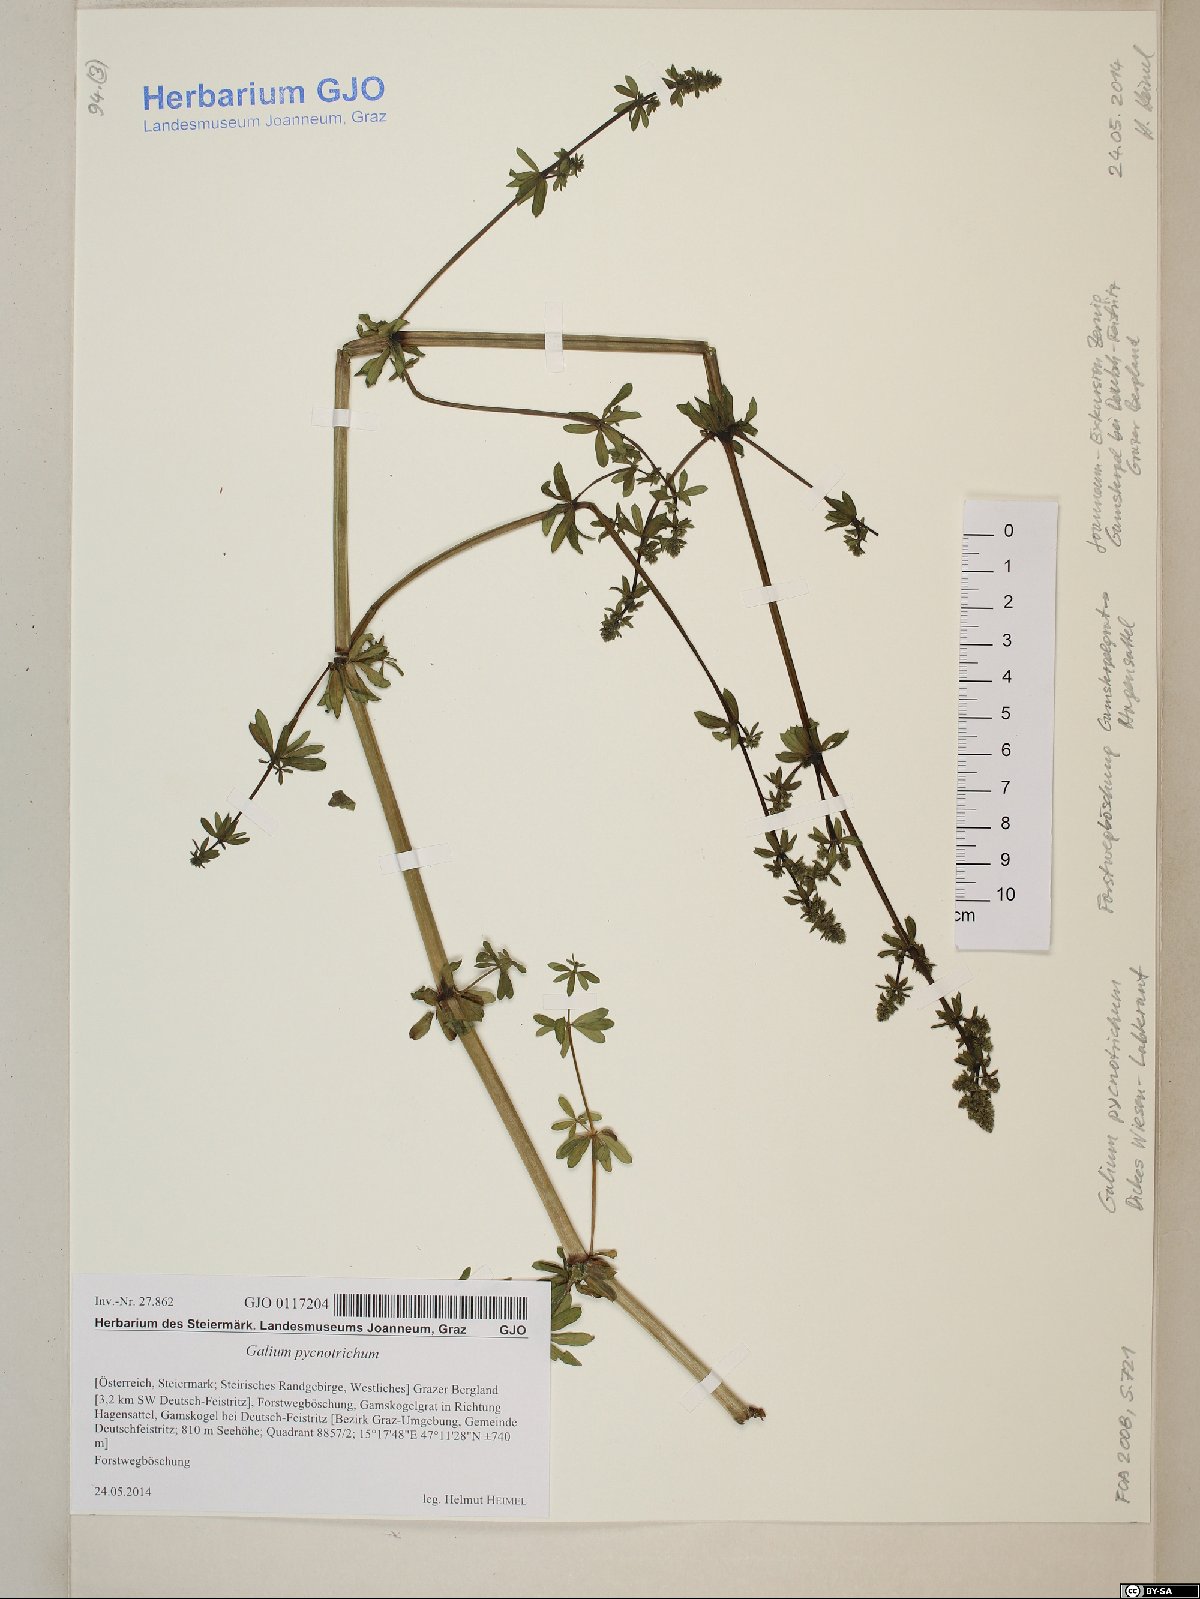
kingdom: Plantae
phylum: Tracheophyta
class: Magnoliopsida
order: Gentianales
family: Rubiaceae
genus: Galium
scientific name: Galium album
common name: White bedstraw
